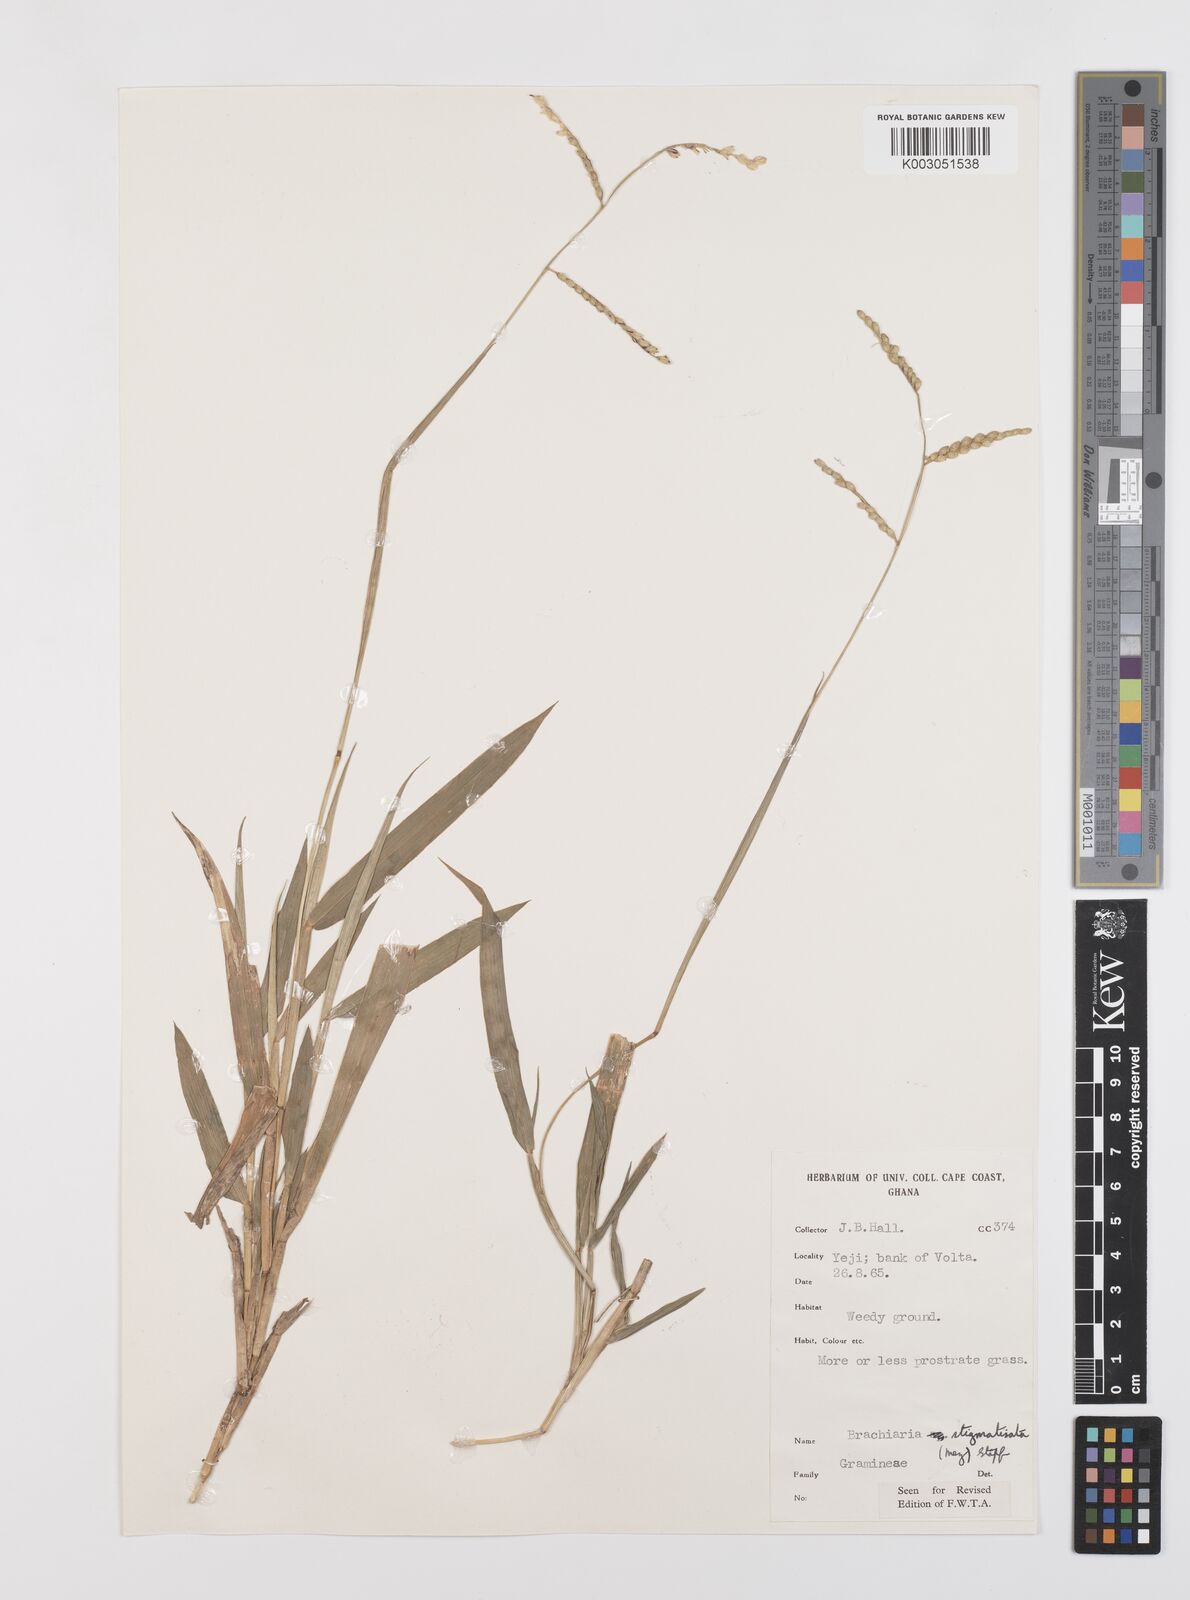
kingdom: Plantae
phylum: Tracheophyta
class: Liliopsida
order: Poales
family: Poaceae
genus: Urochloa
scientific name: Urochloa stigmatisata
